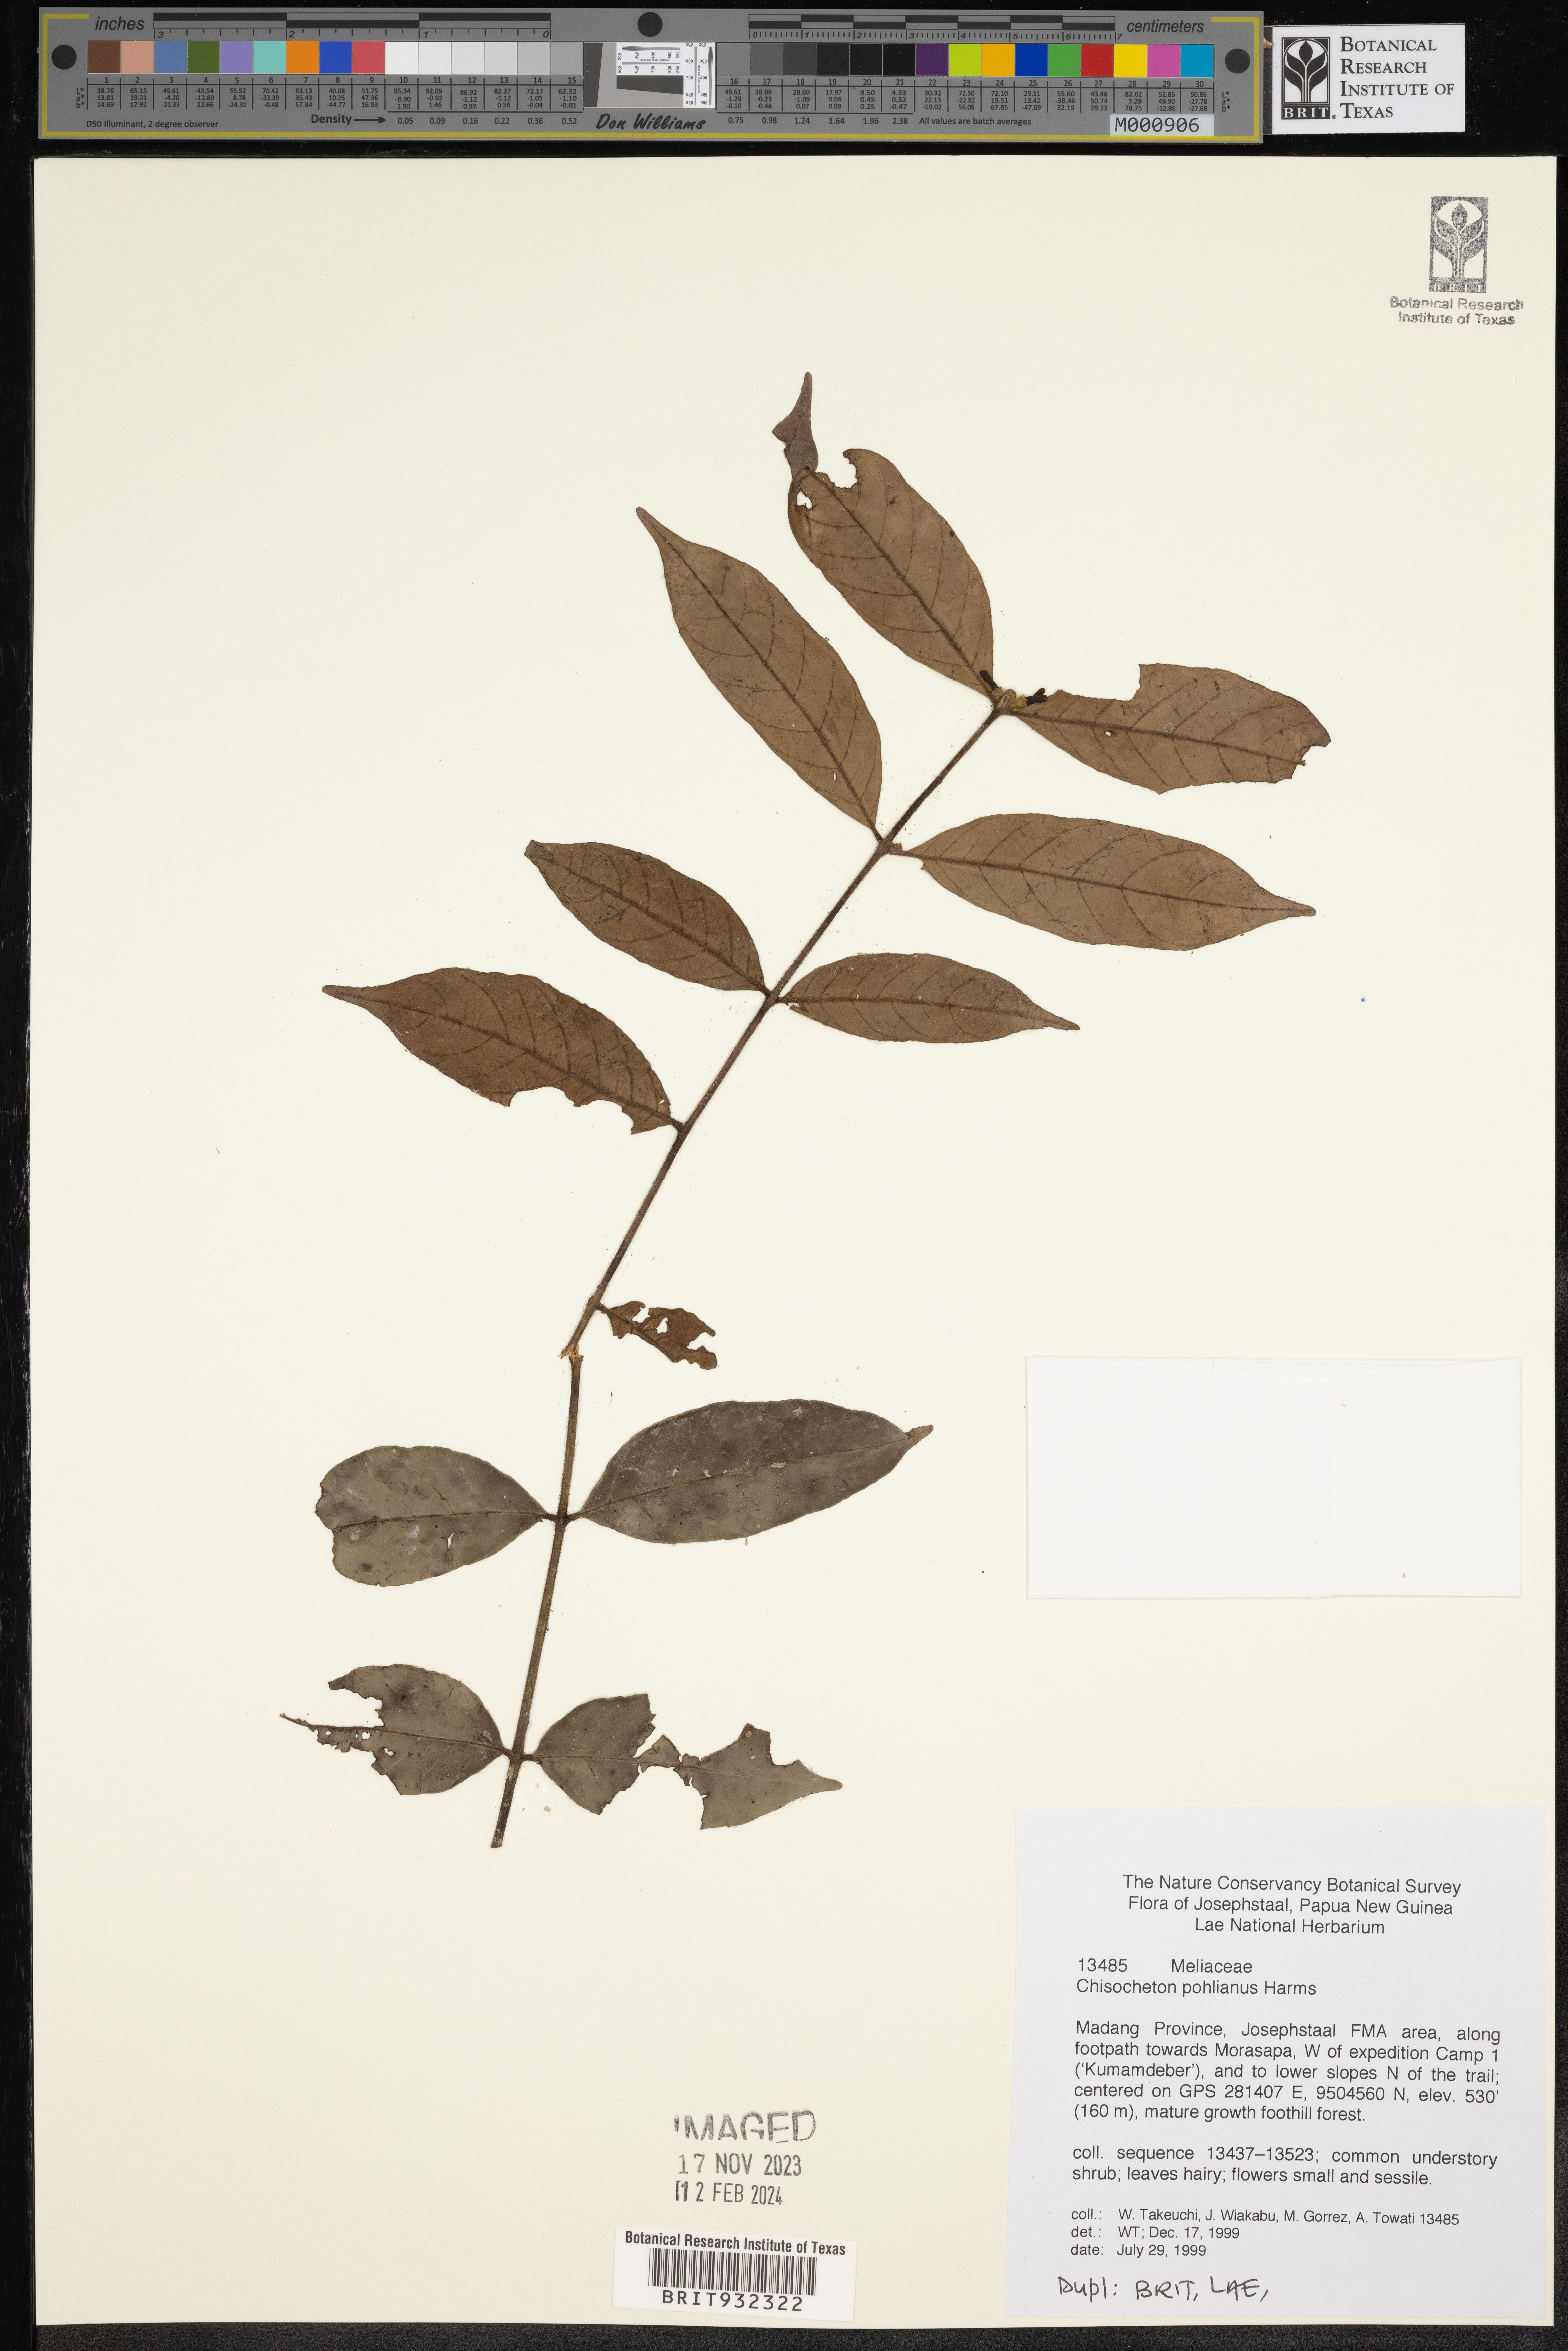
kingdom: Plantae
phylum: Tracheophyta
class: Magnoliopsida
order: Sapindales
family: Meliaceae
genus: Chisocheton
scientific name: Chisocheton
